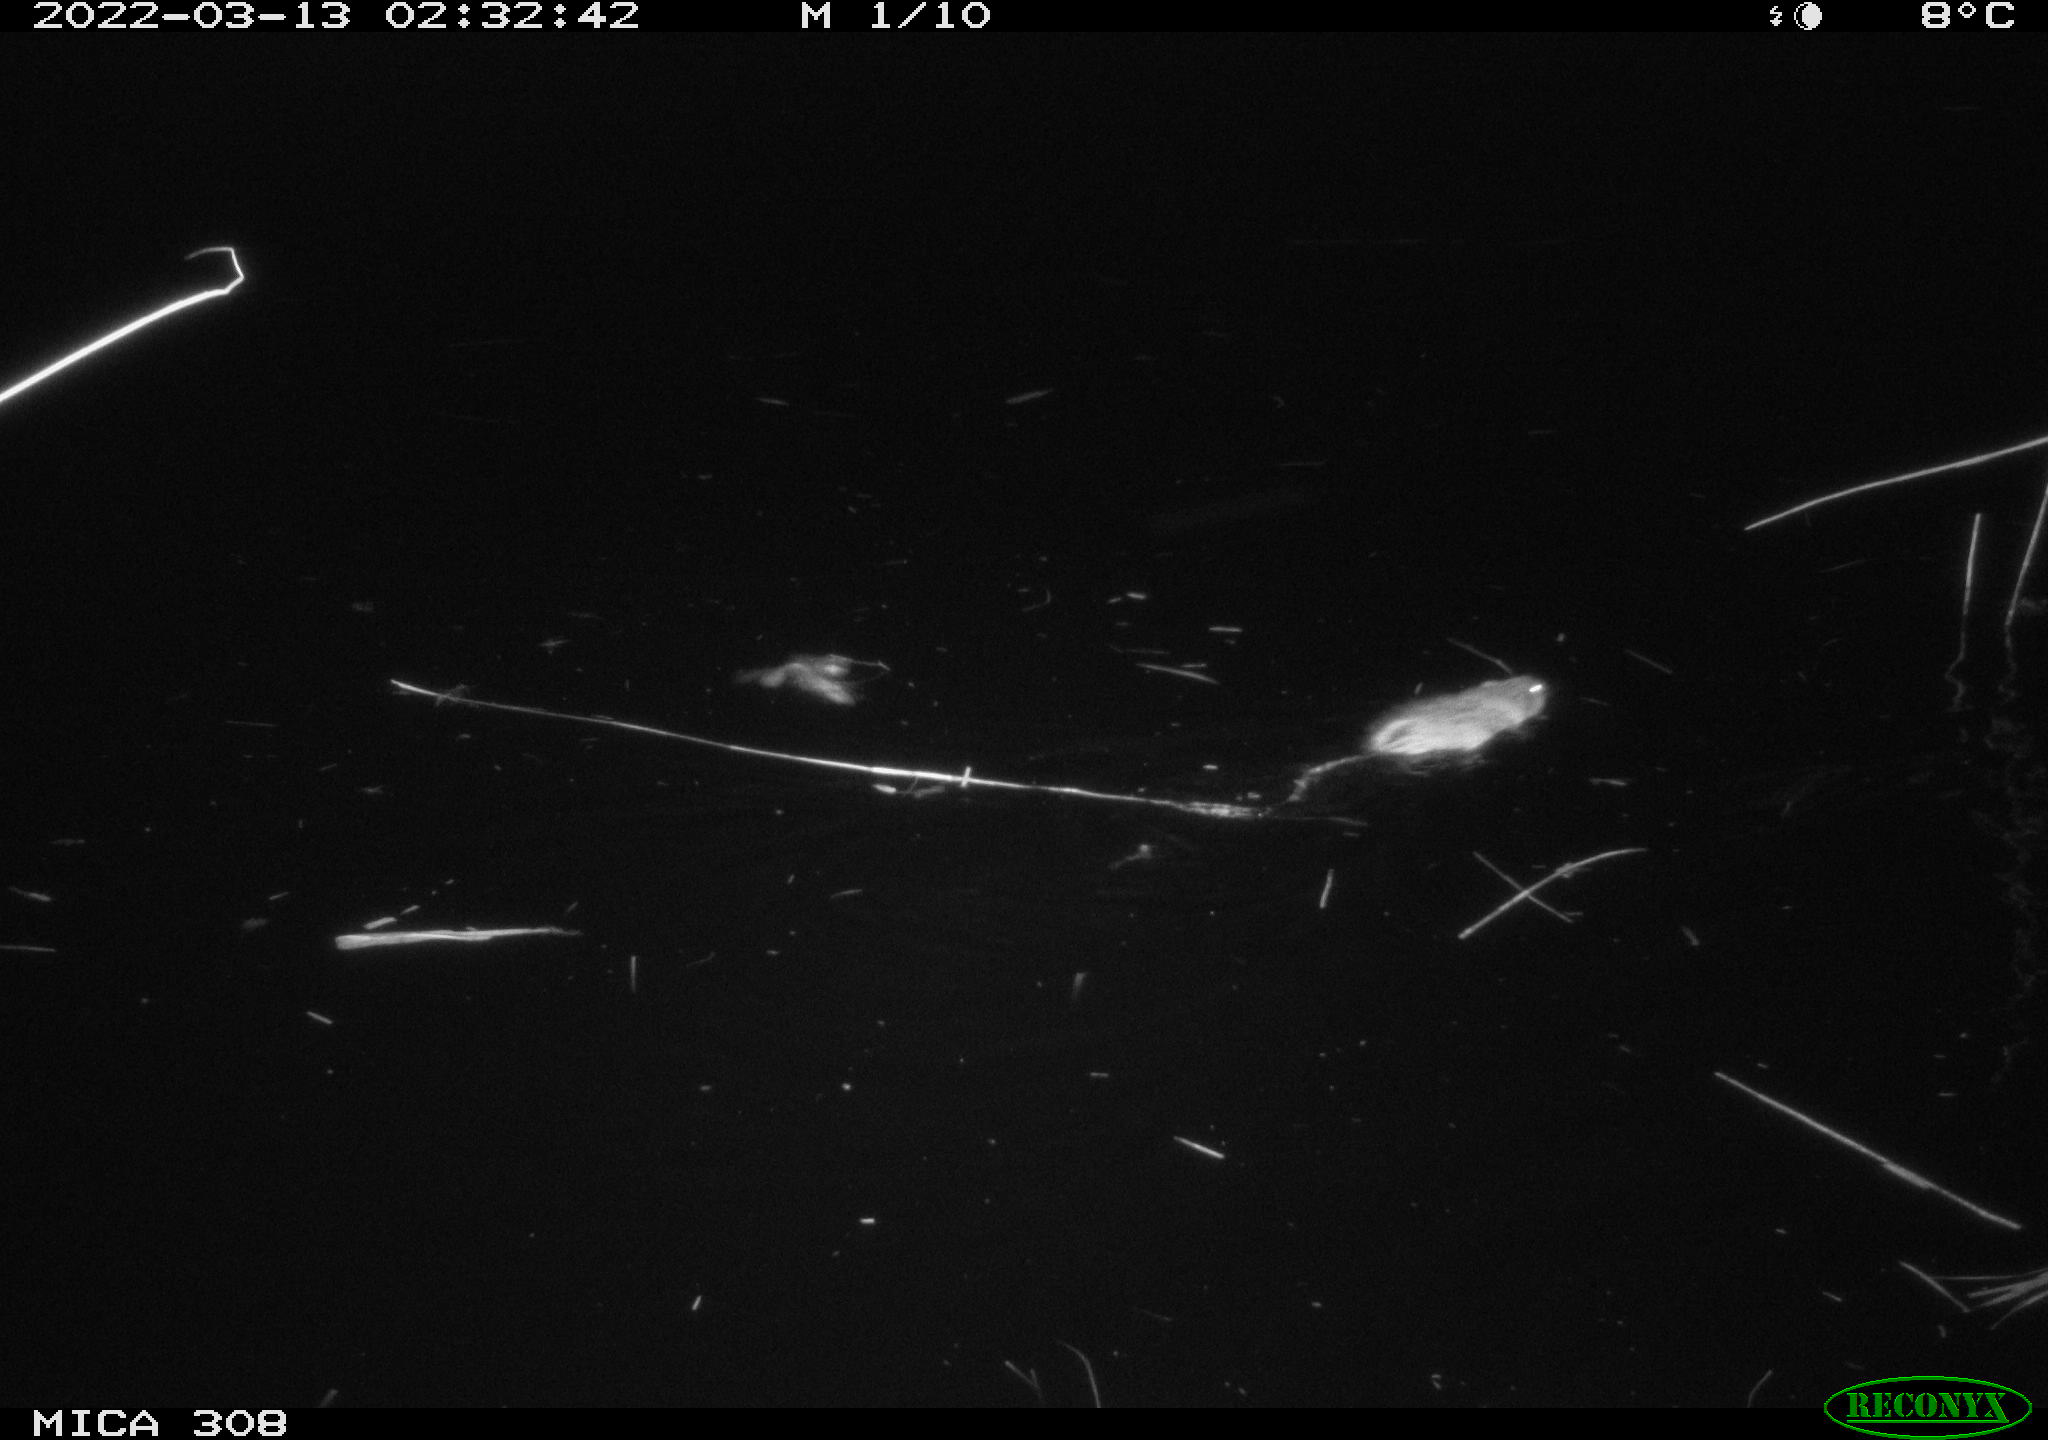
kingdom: Animalia
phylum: Chordata
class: Mammalia
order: Rodentia
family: Cricetidae
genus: Ondatra
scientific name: Ondatra zibethicus
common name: Muskrat
